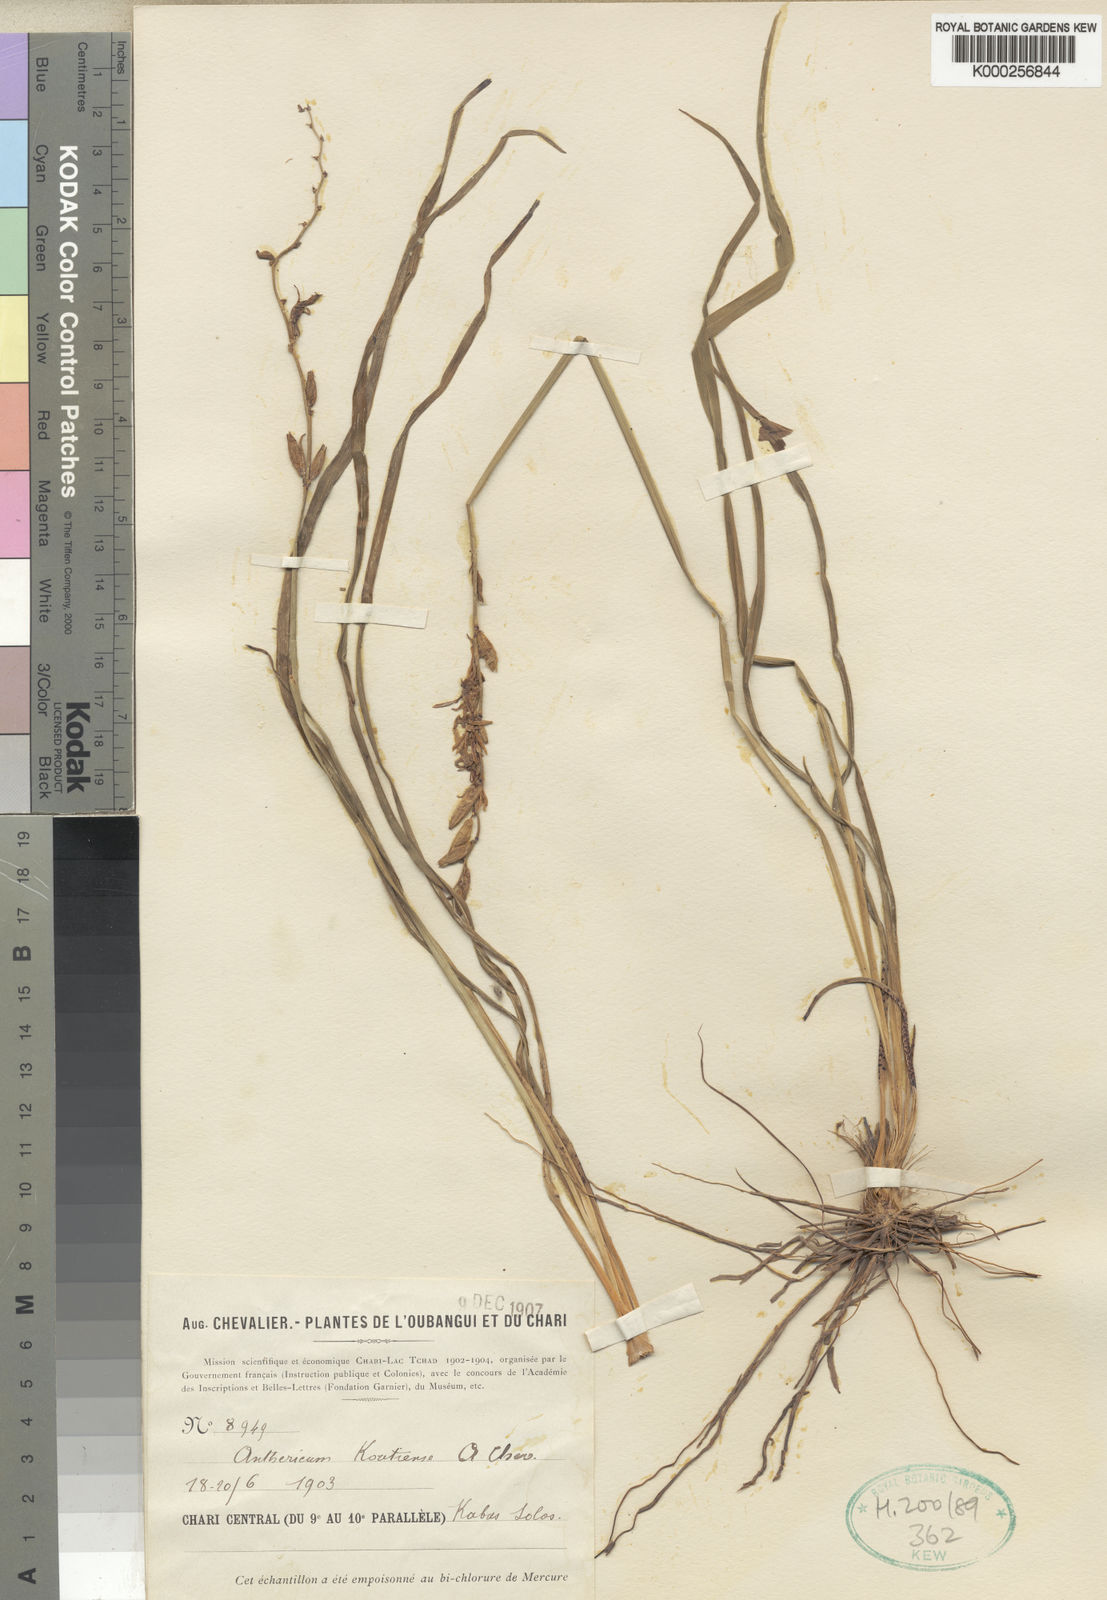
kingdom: Plantae
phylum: Tracheophyta
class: Liliopsida
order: Asparagales
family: Asparagaceae
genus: Chlorophytum
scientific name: Chlorophytum cameronii
